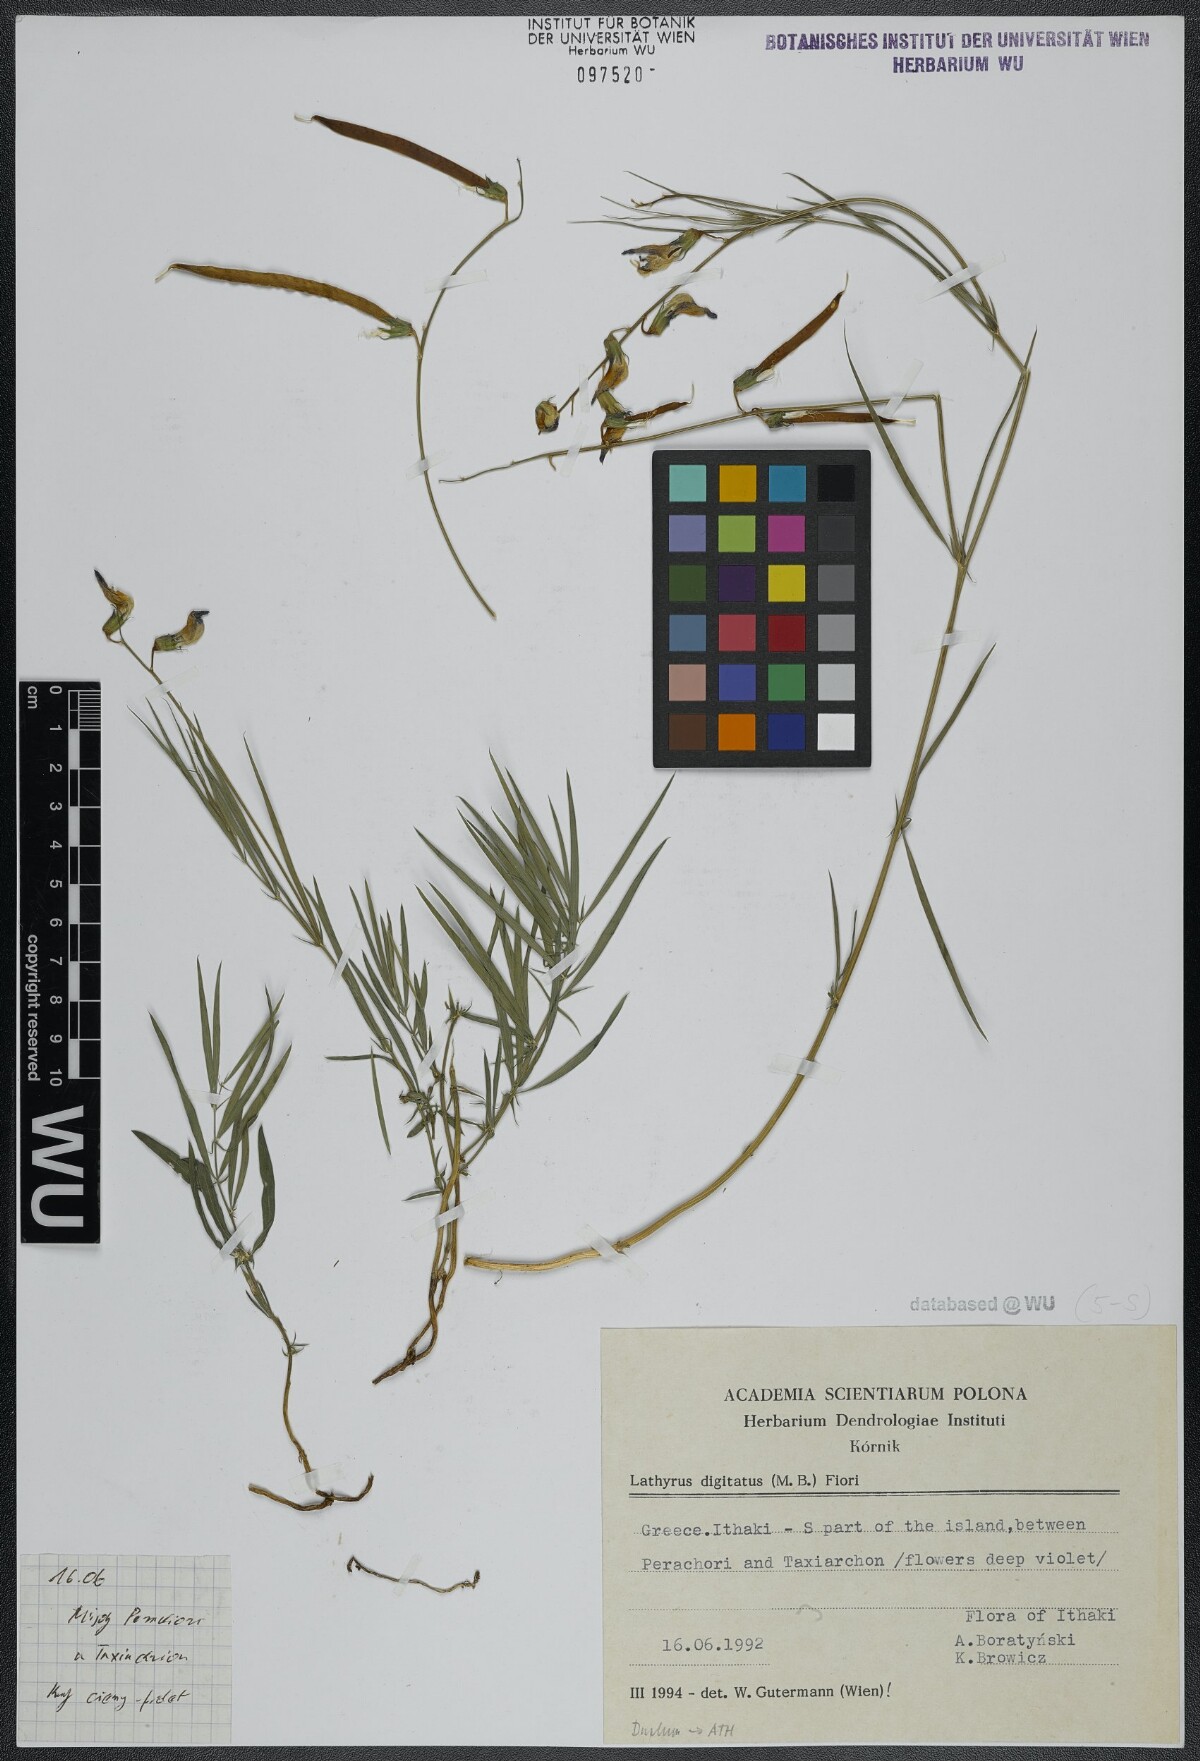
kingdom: Plantae
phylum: Tracheophyta
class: Magnoliopsida
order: Fabales
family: Fabaceae
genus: Lathyrus
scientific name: Lathyrus digitatus
